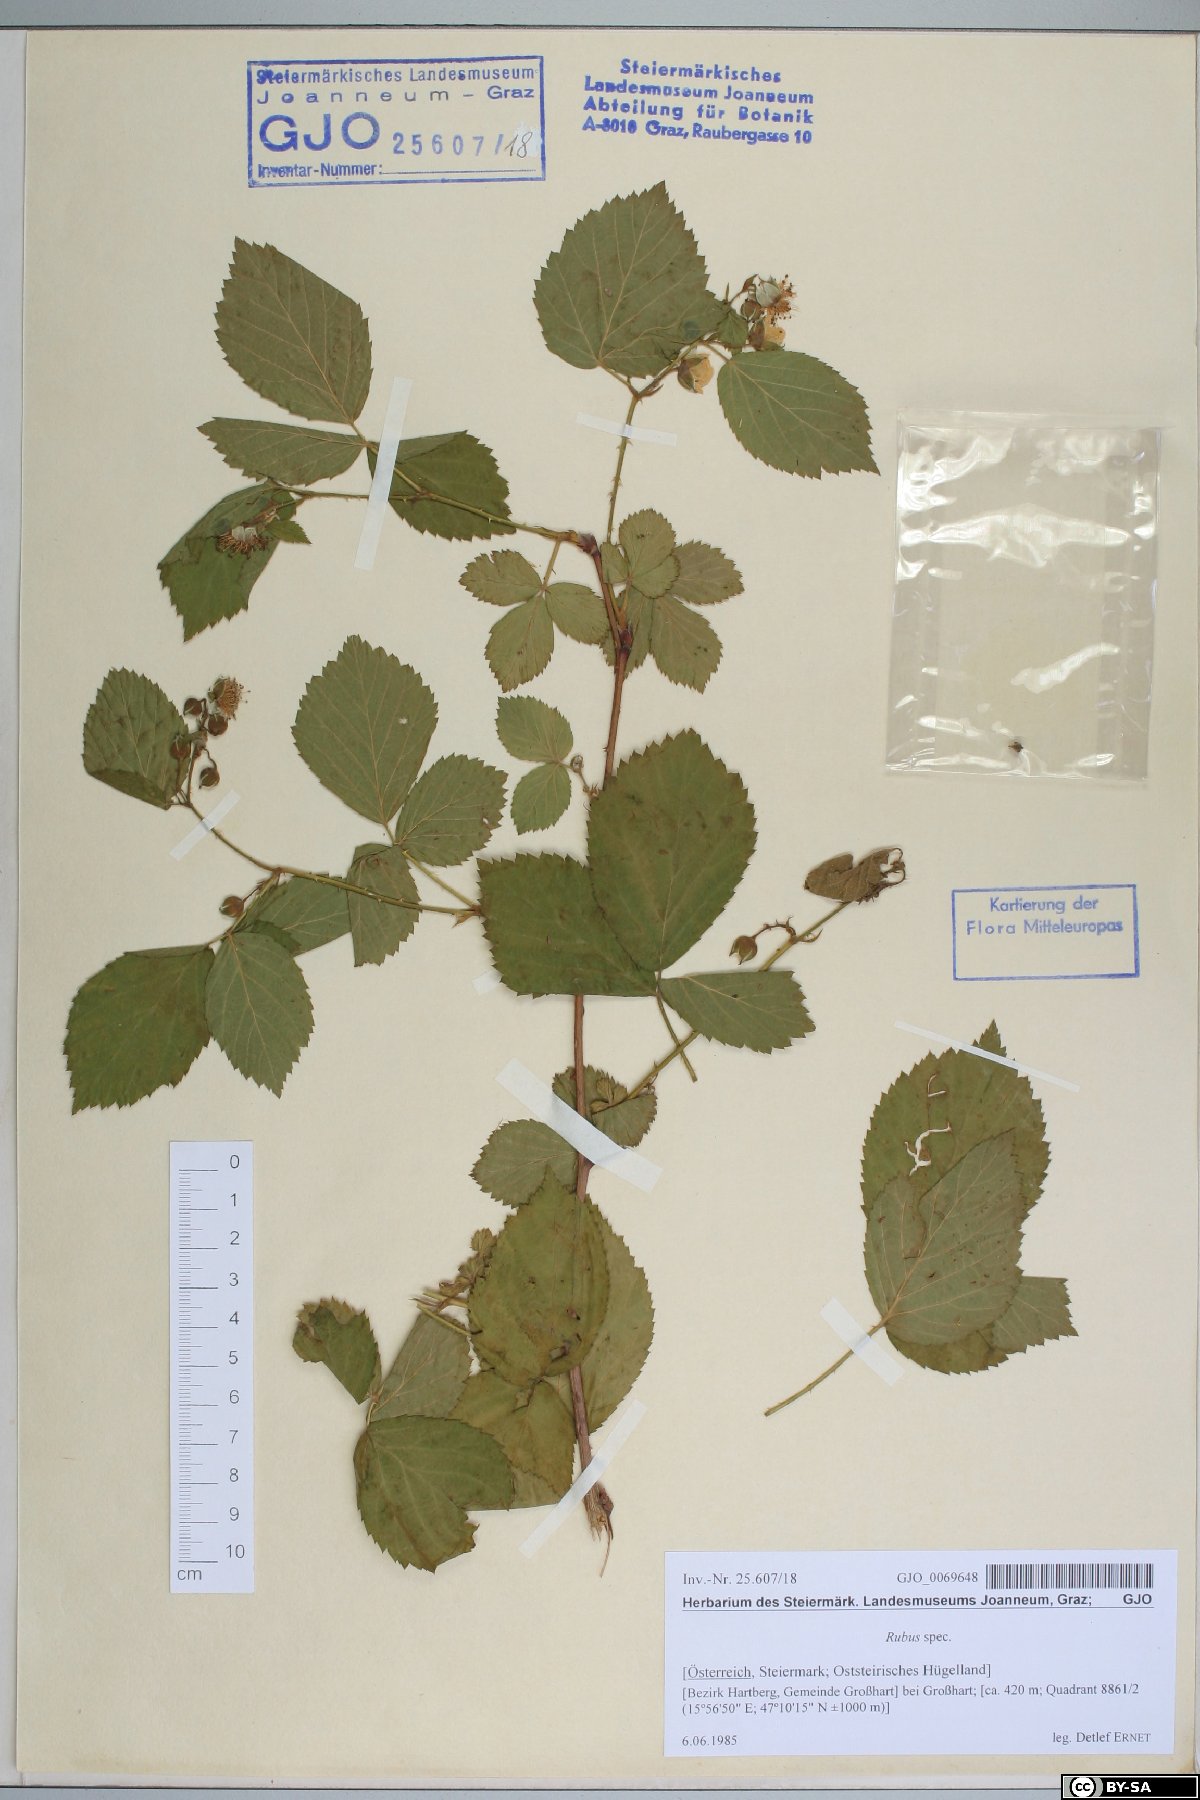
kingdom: Plantae
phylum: Tracheophyta
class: Magnoliopsida
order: Rosales
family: Rosaceae
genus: Rubus
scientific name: Rubus
